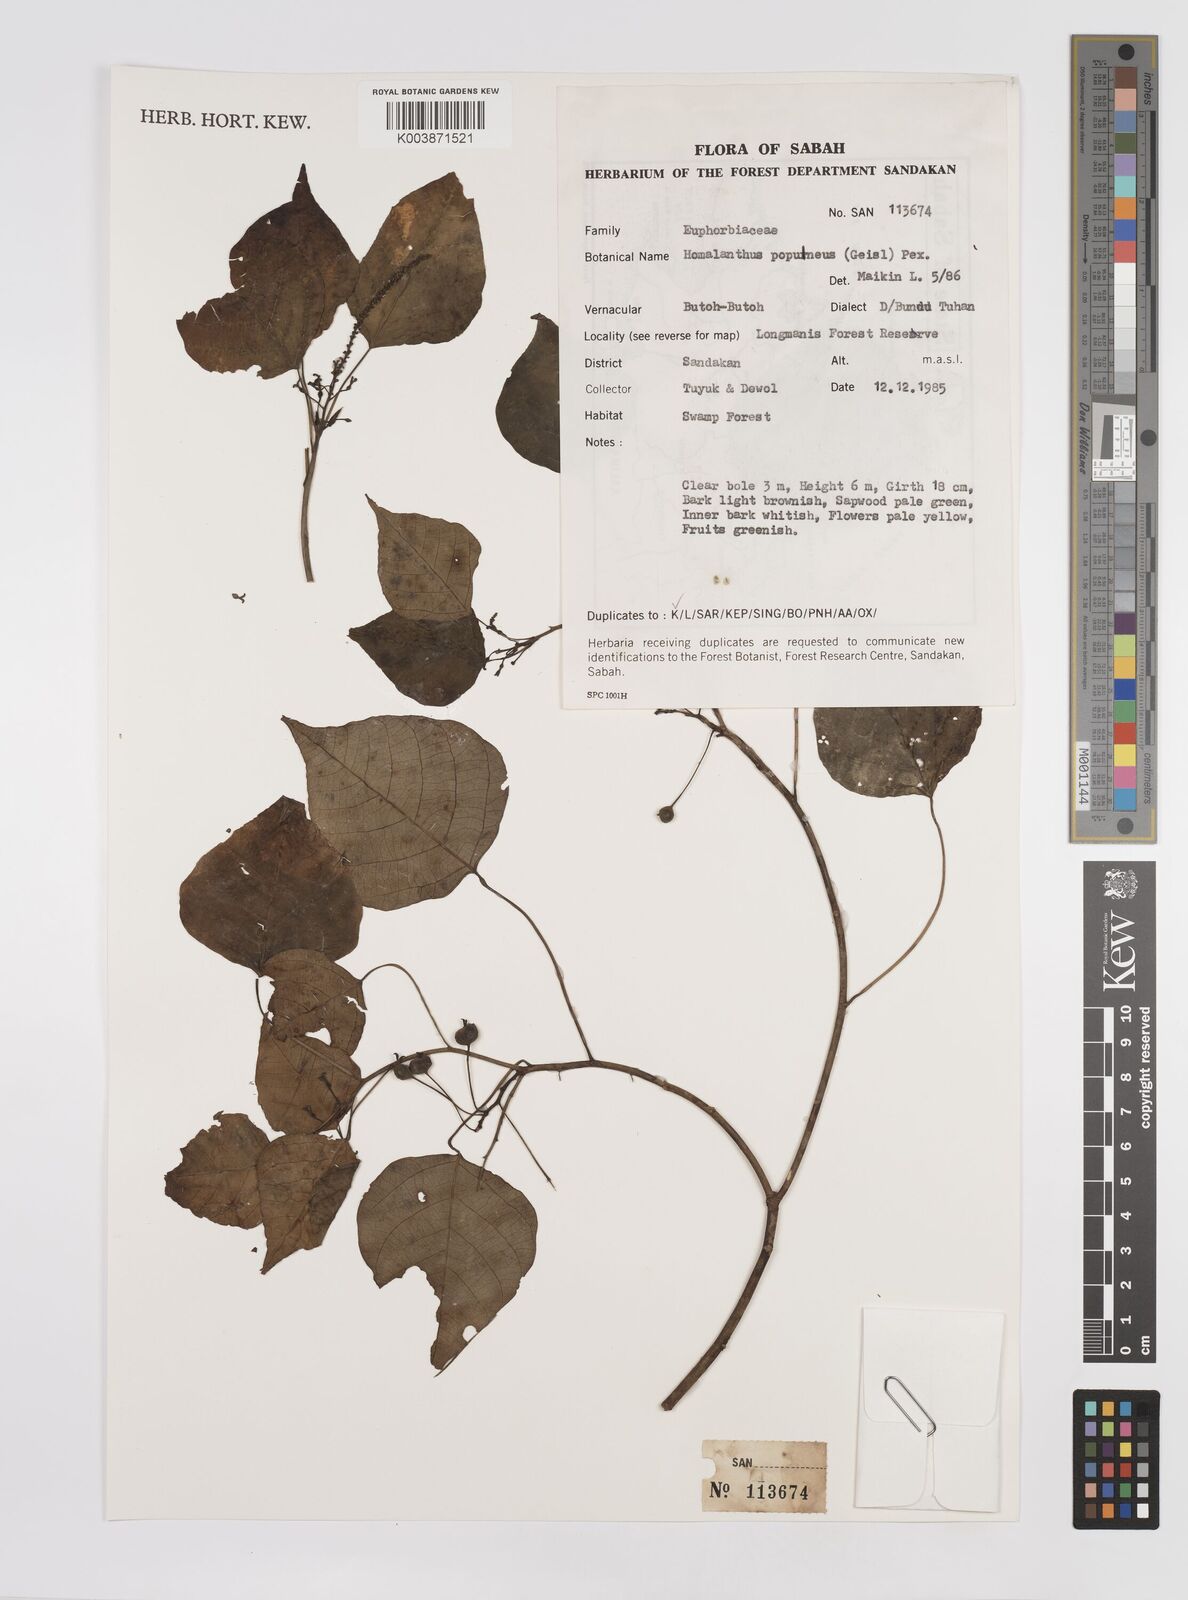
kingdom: Plantae
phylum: Tracheophyta
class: Magnoliopsida
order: Malpighiales
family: Euphorbiaceae
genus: Homalanthus
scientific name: Homalanthus populneus
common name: Spurge
